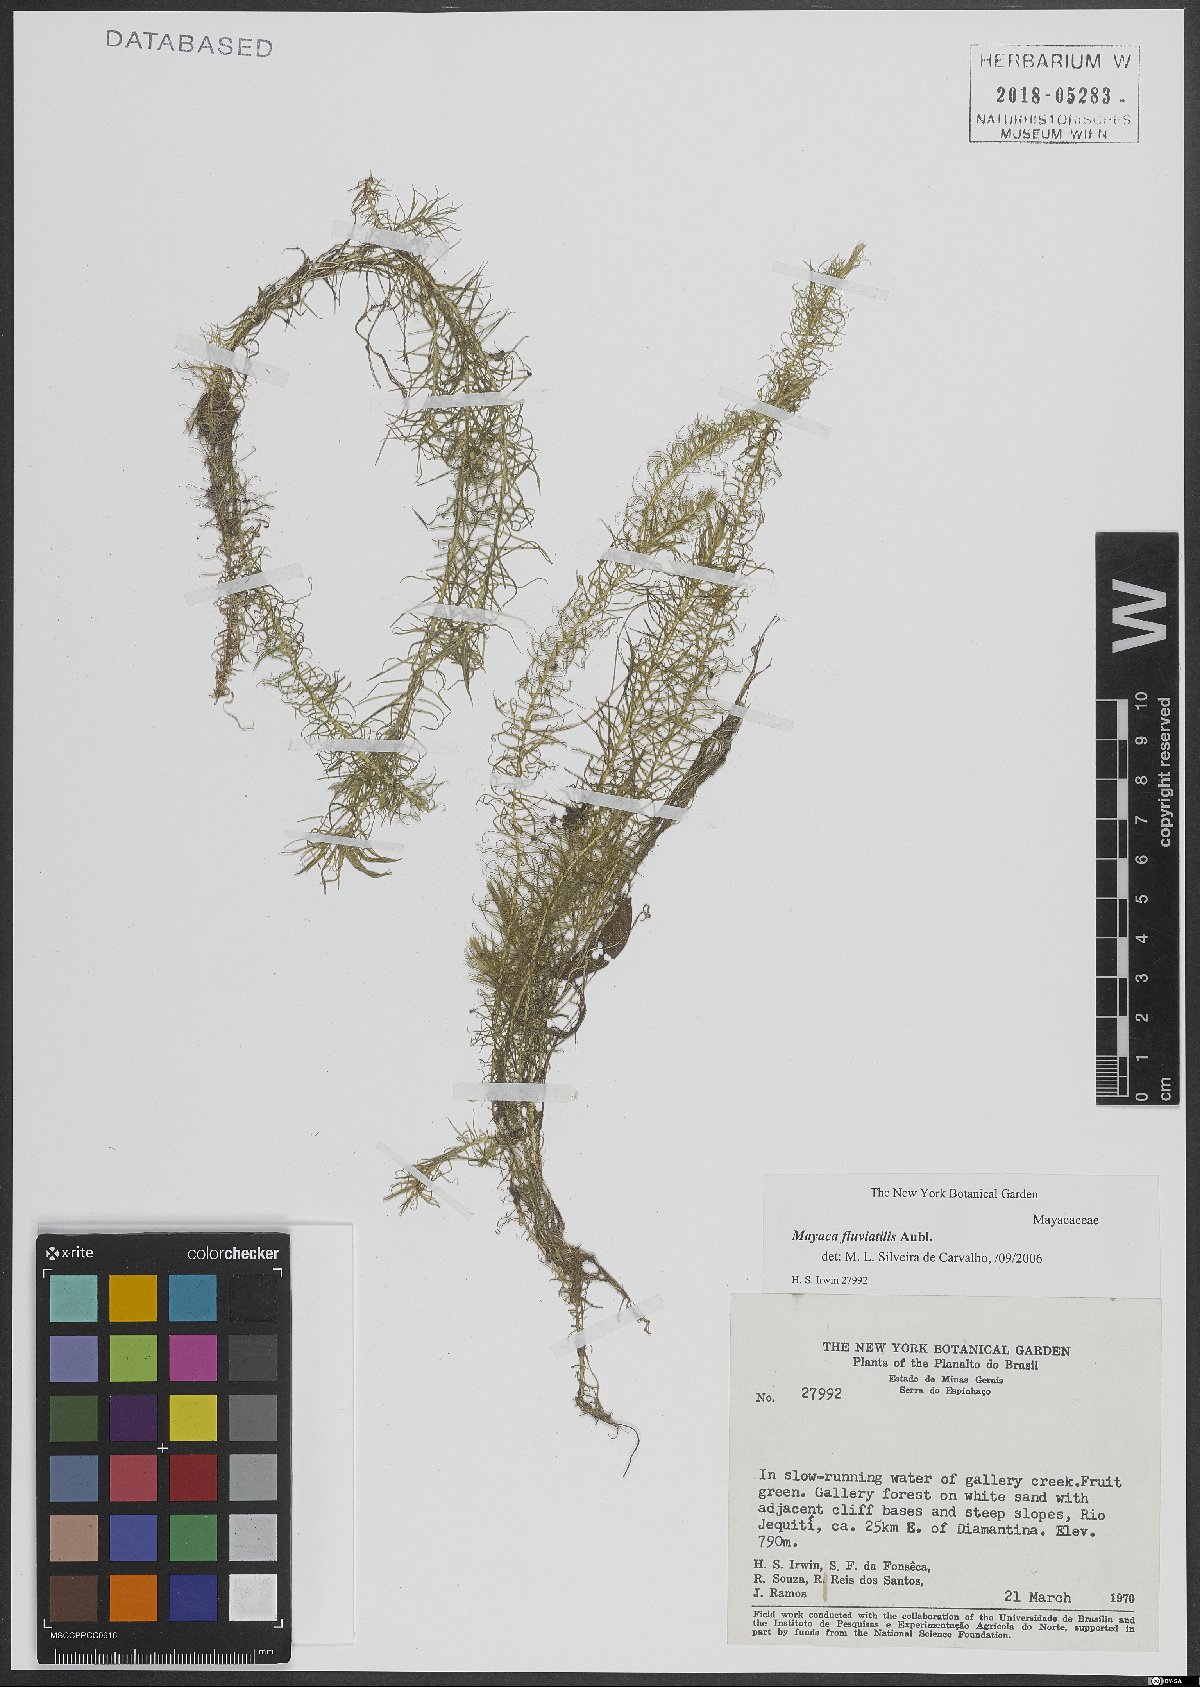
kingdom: Plantae
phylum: Tracheophyta
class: Liliopsida
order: Poales
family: Mayacaceae
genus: Mayaca
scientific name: Mayaca fluviatilis
